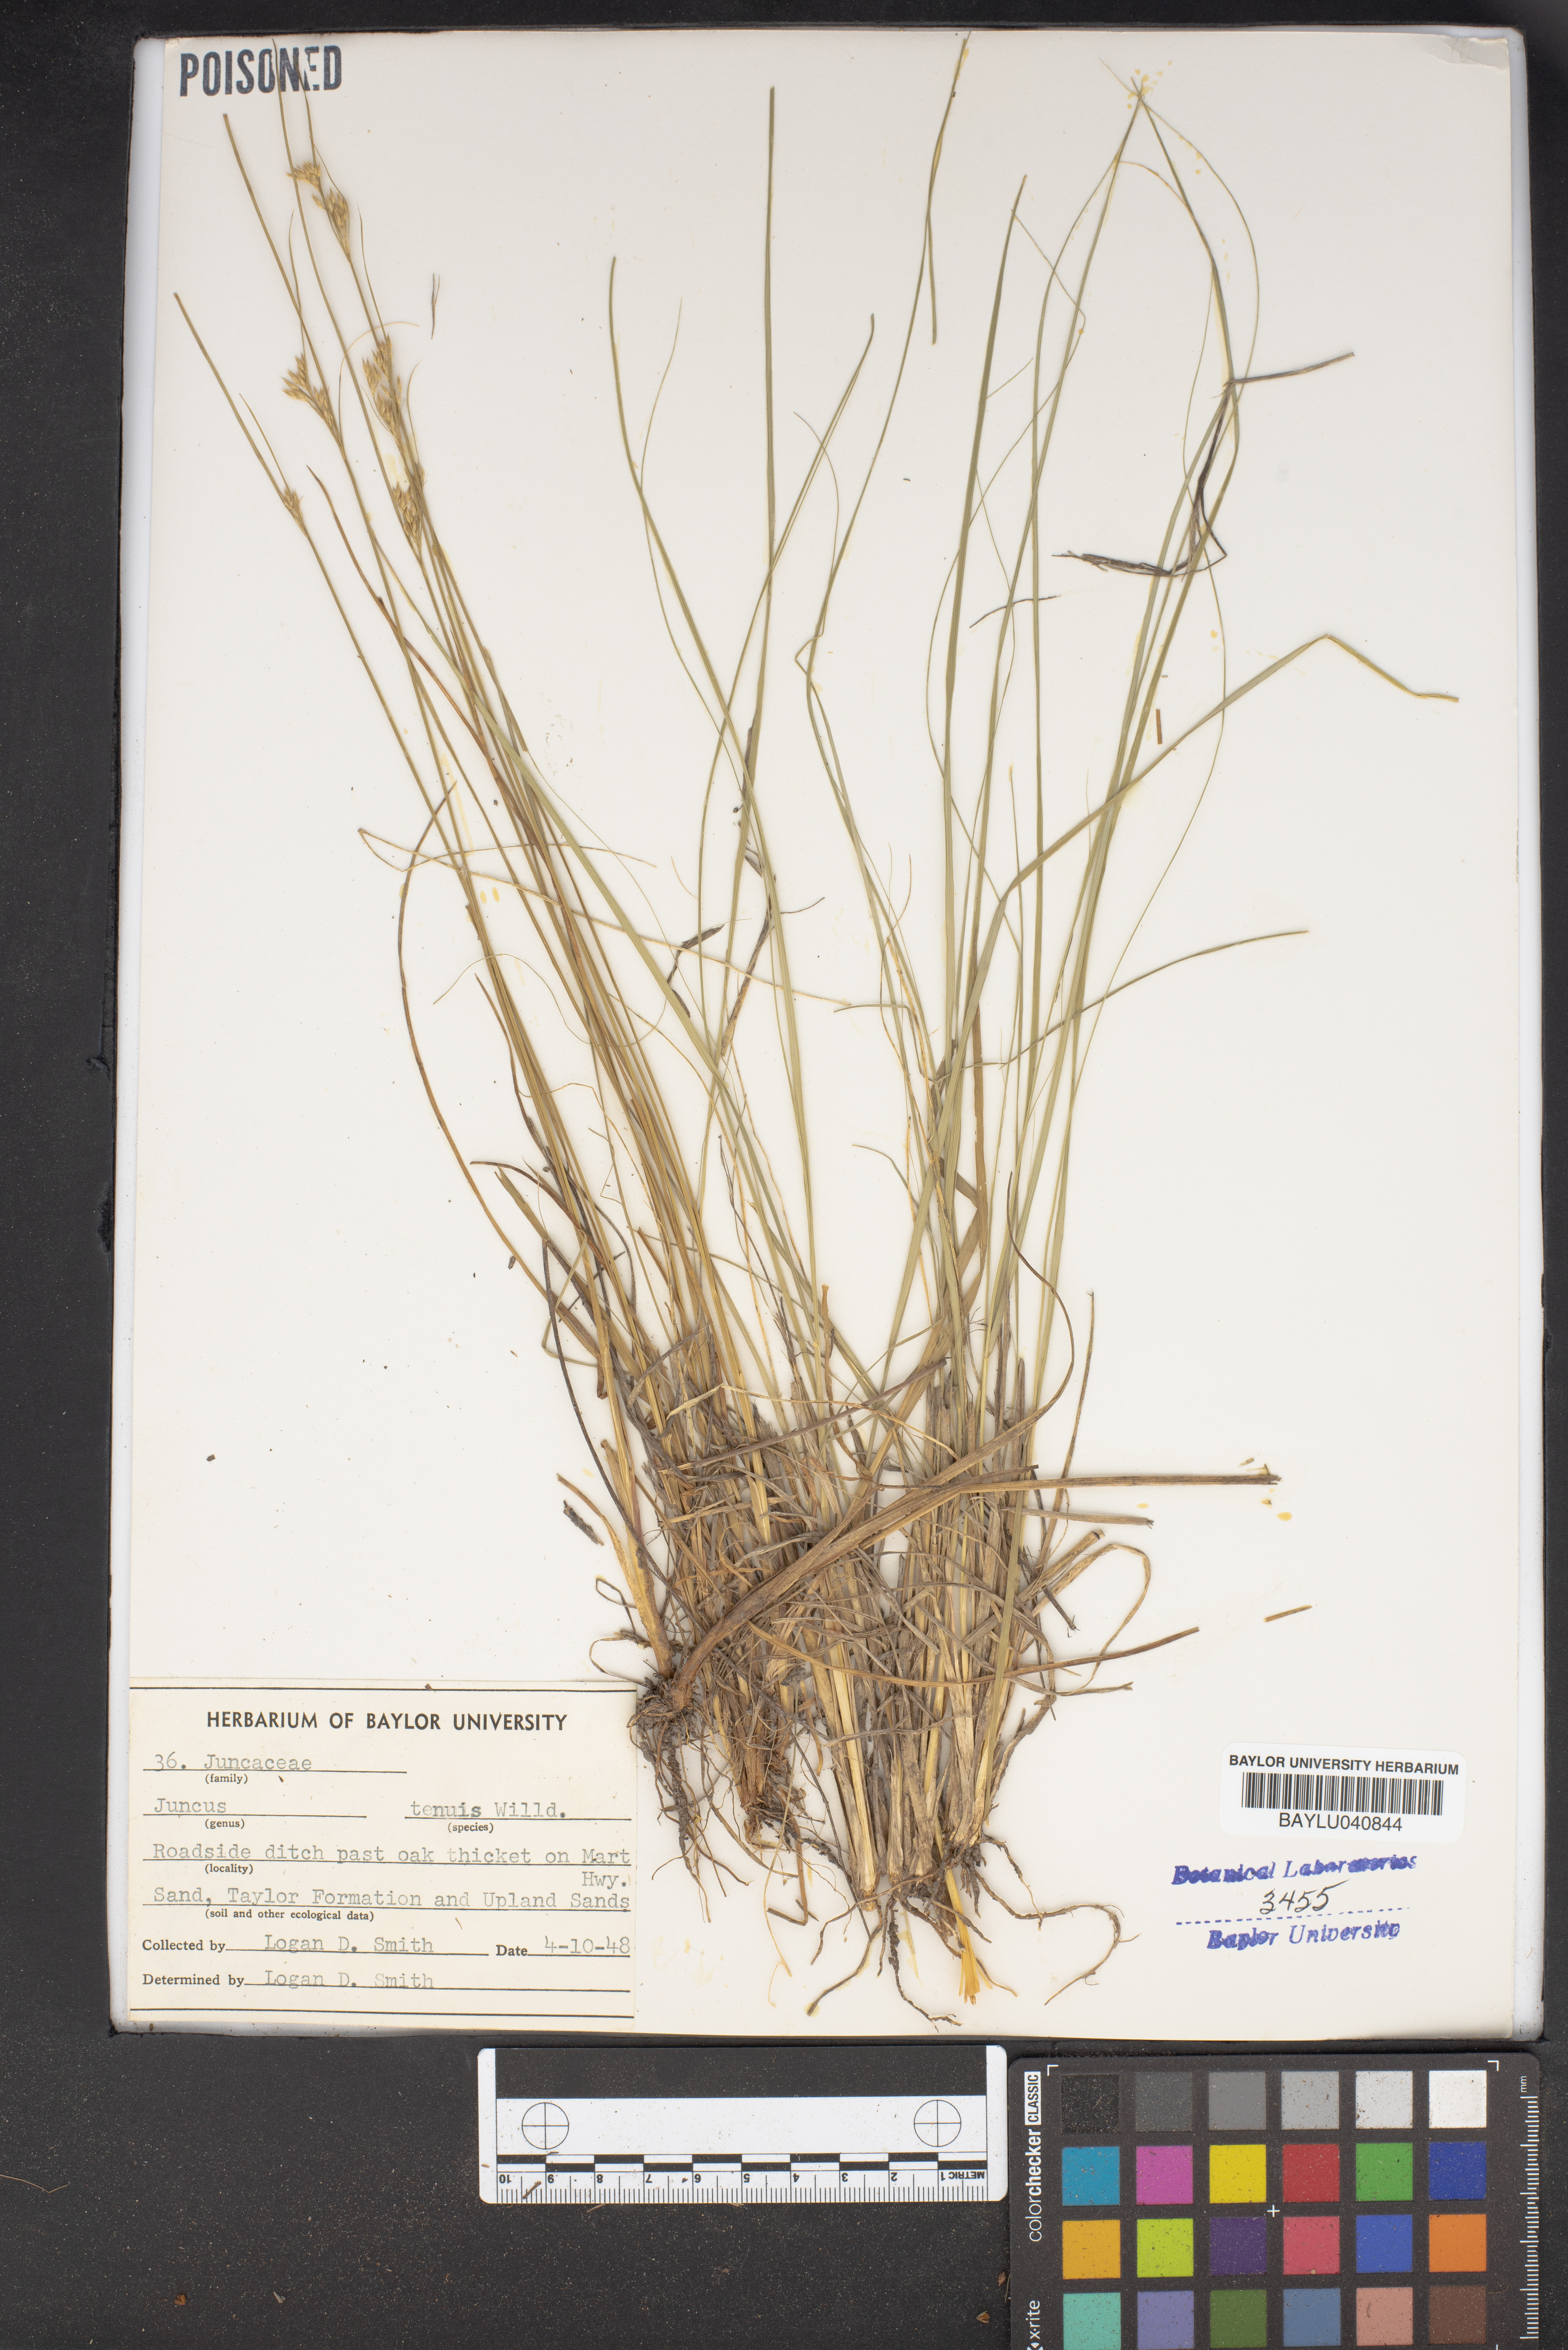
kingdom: Plantae
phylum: Tracheophyta
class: Liliopsida
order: Poales
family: Juncaceae
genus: Juncus
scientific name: Juncus tenuis
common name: Slender rush
